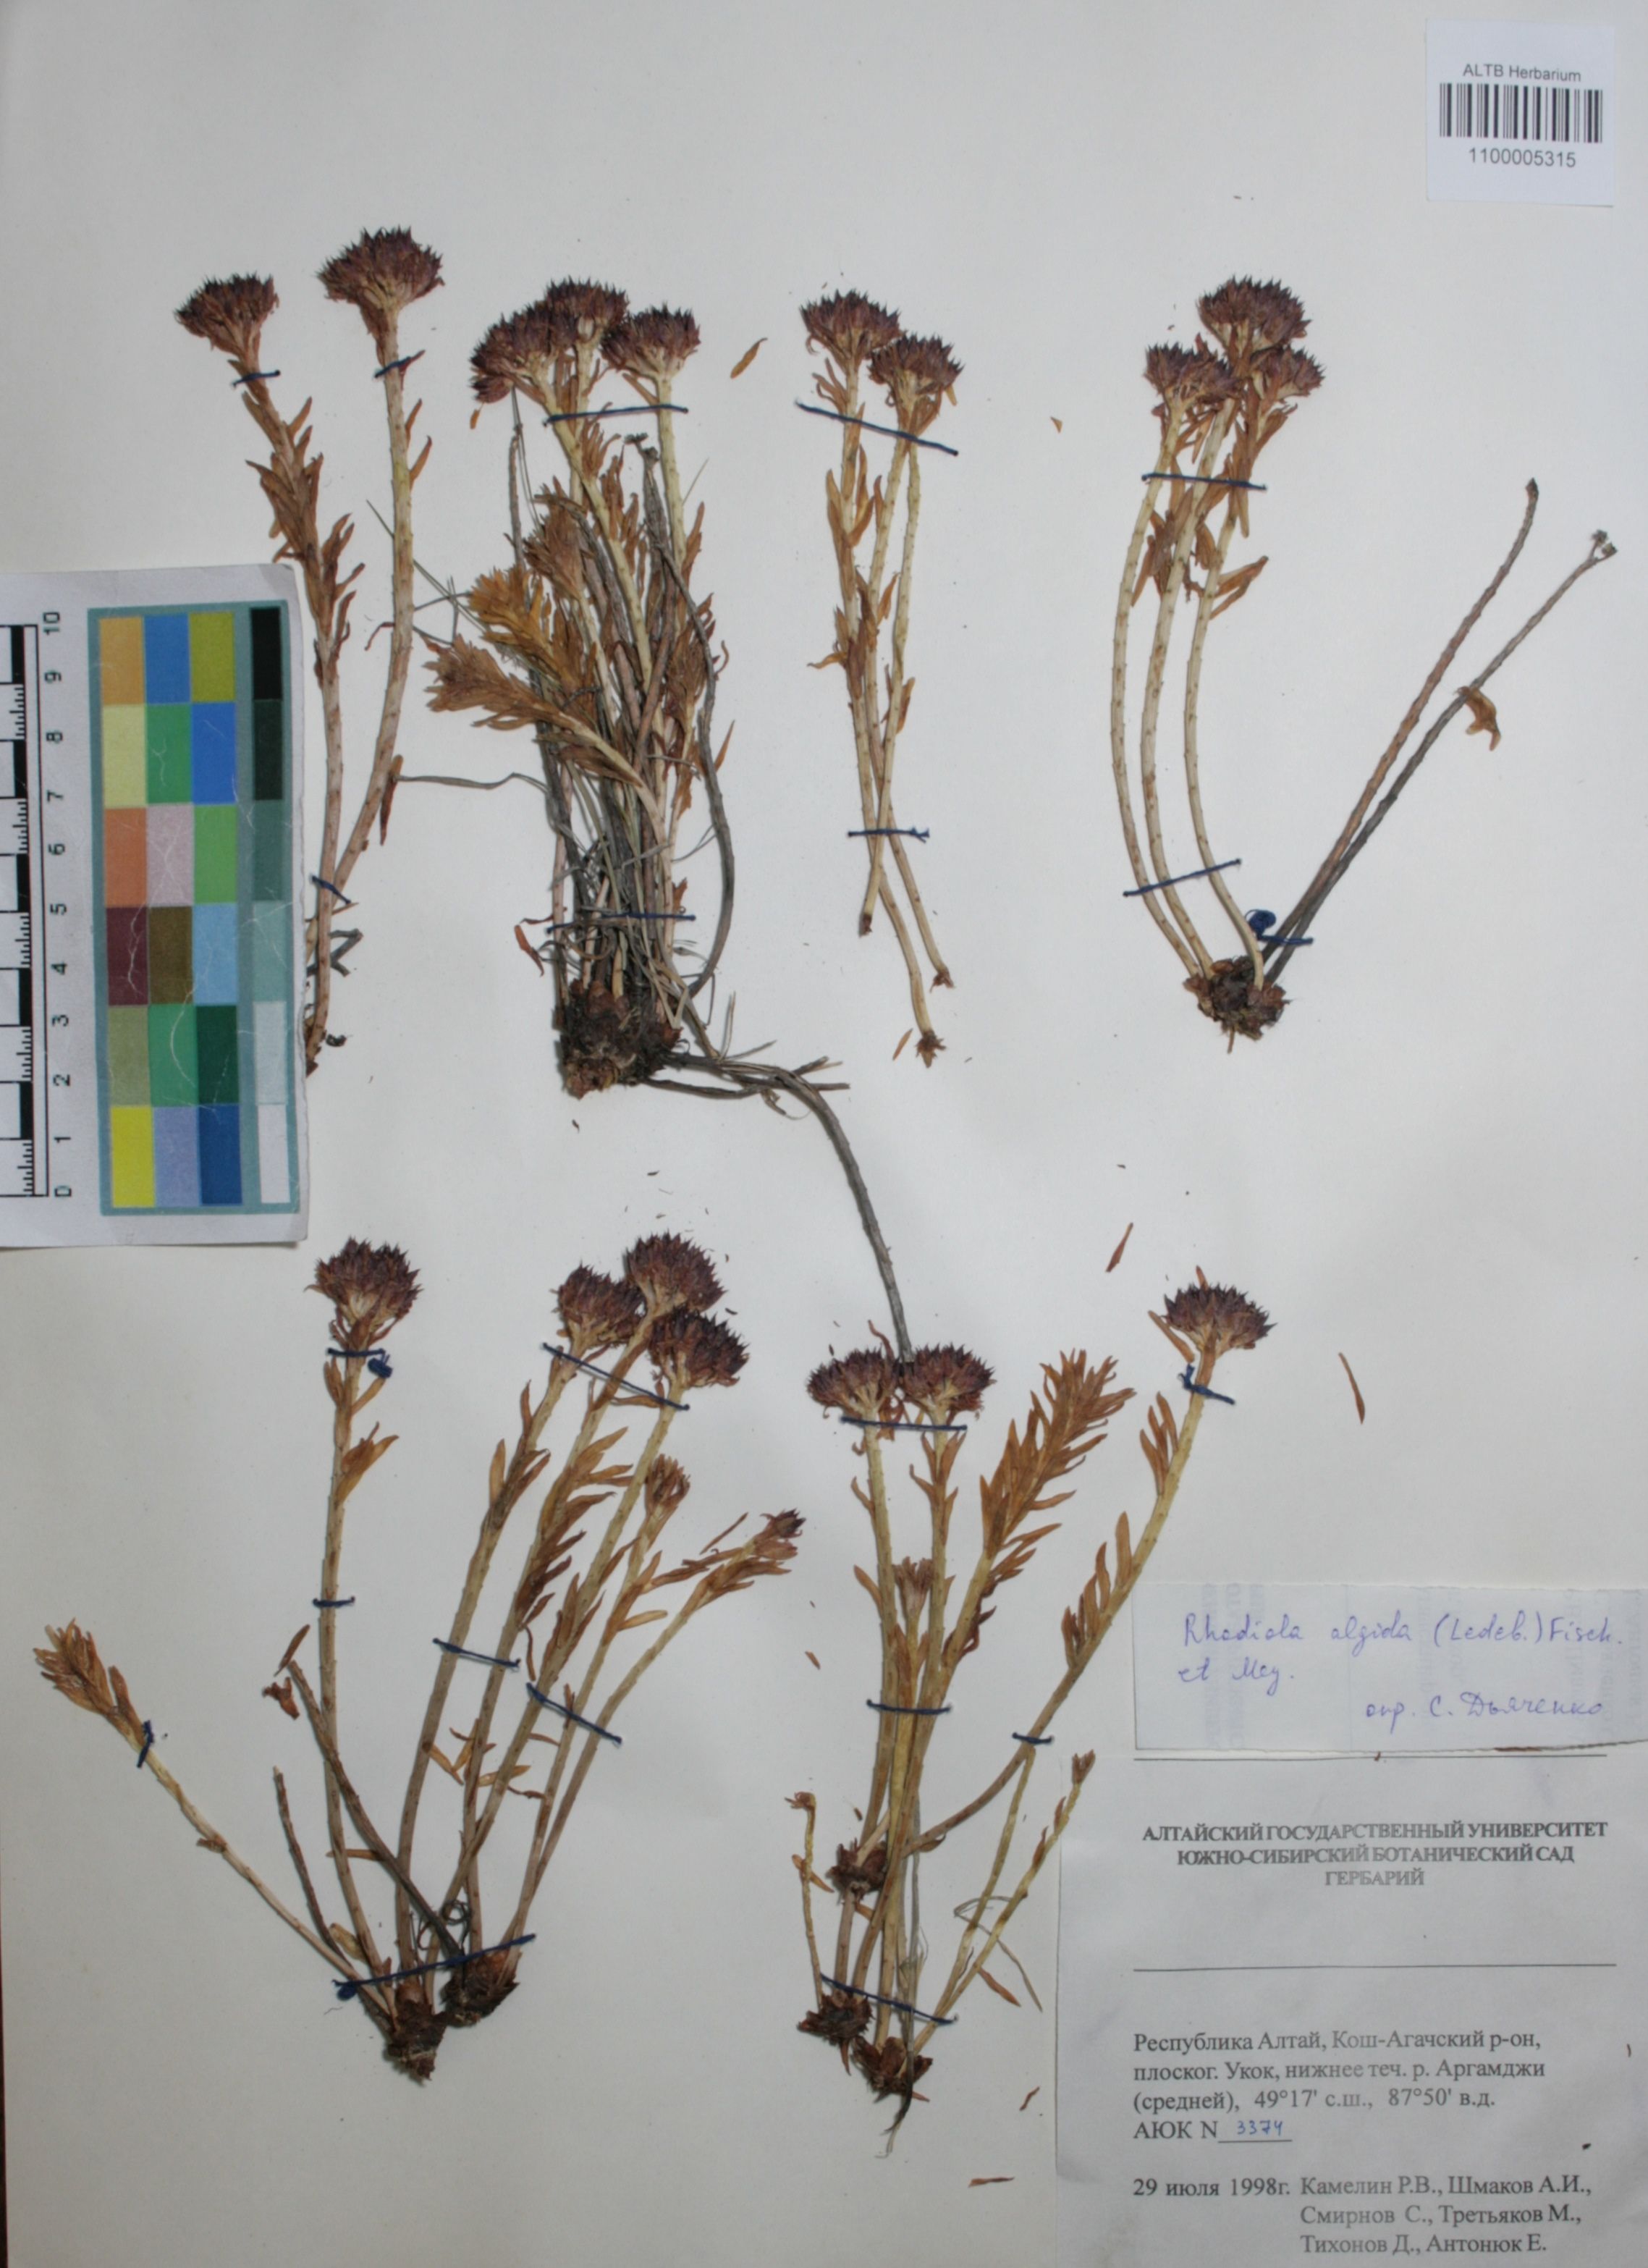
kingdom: Plantae
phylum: Tracheophyta
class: Magnoliopsida
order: Saxifragales
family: Crassulaceae
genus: Rhodiola
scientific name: Rhodiola algida
